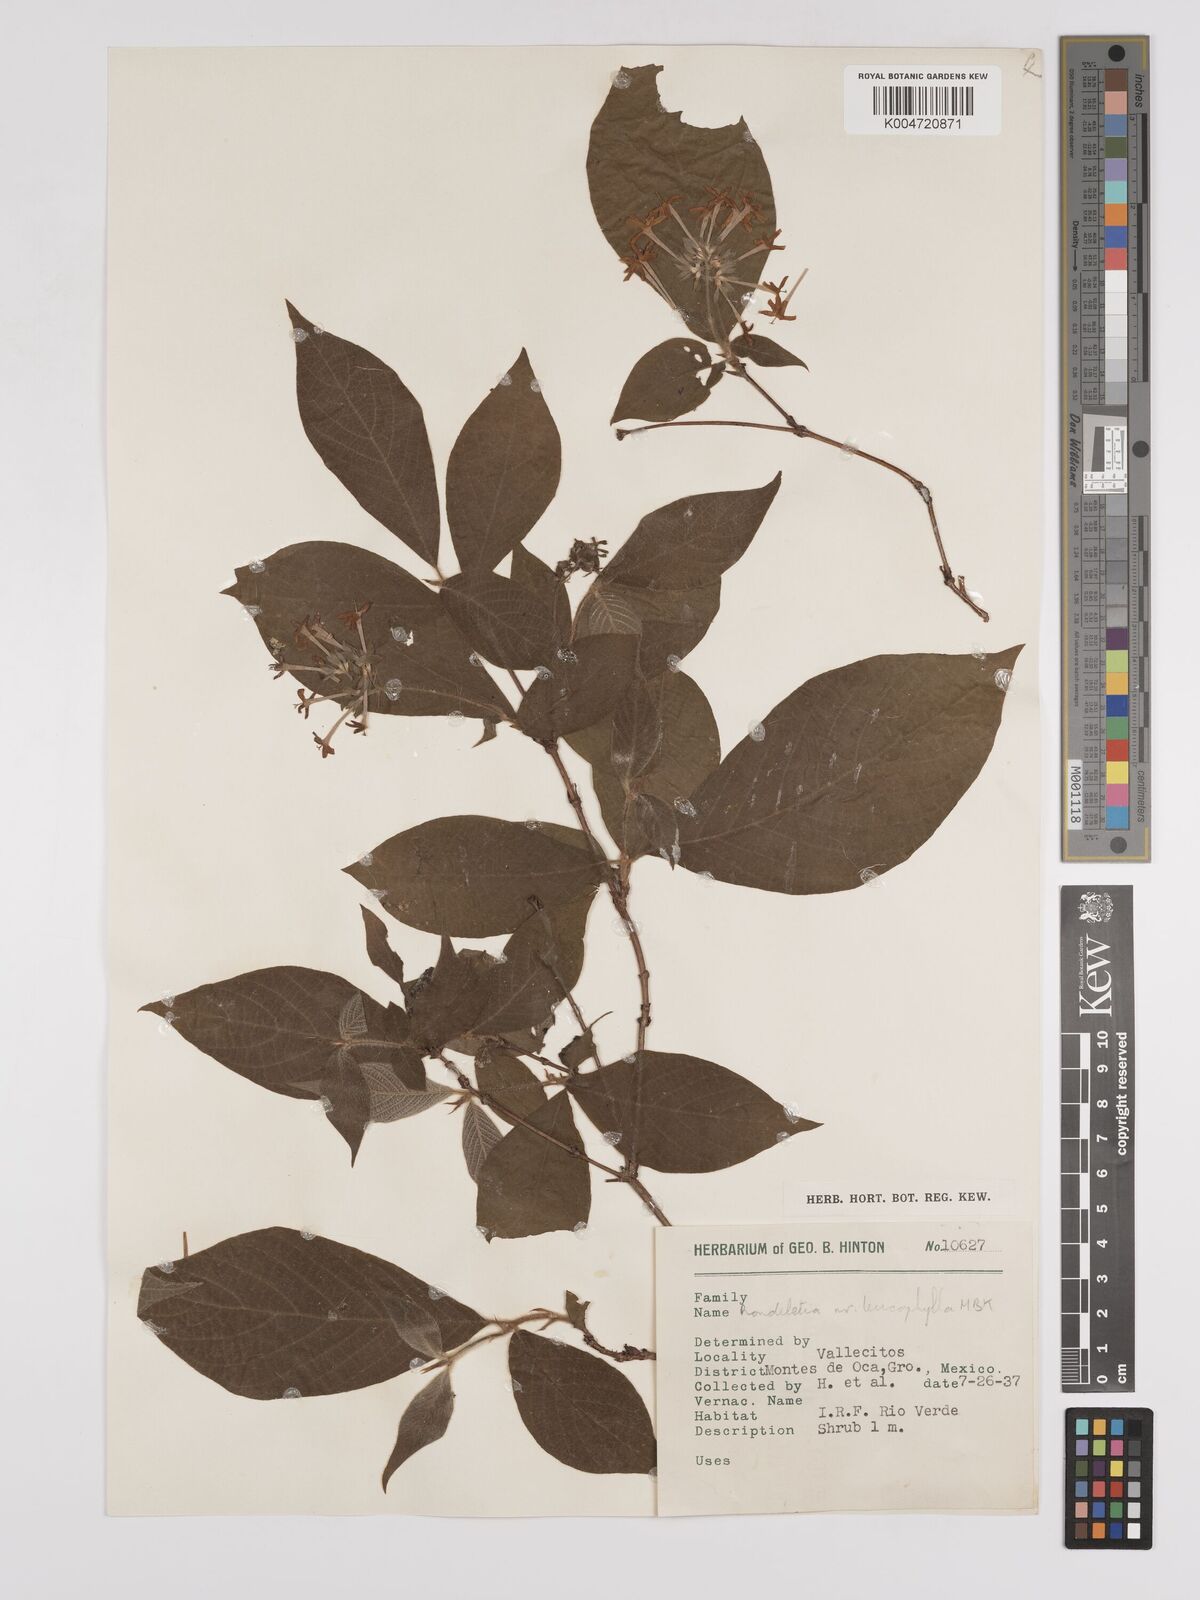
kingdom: Plantae
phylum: Tracheophyta
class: Magnoliopsida
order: Gentianales
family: Rubiaceae
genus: Arachnothryx
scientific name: Arachnothryx leucophylla
